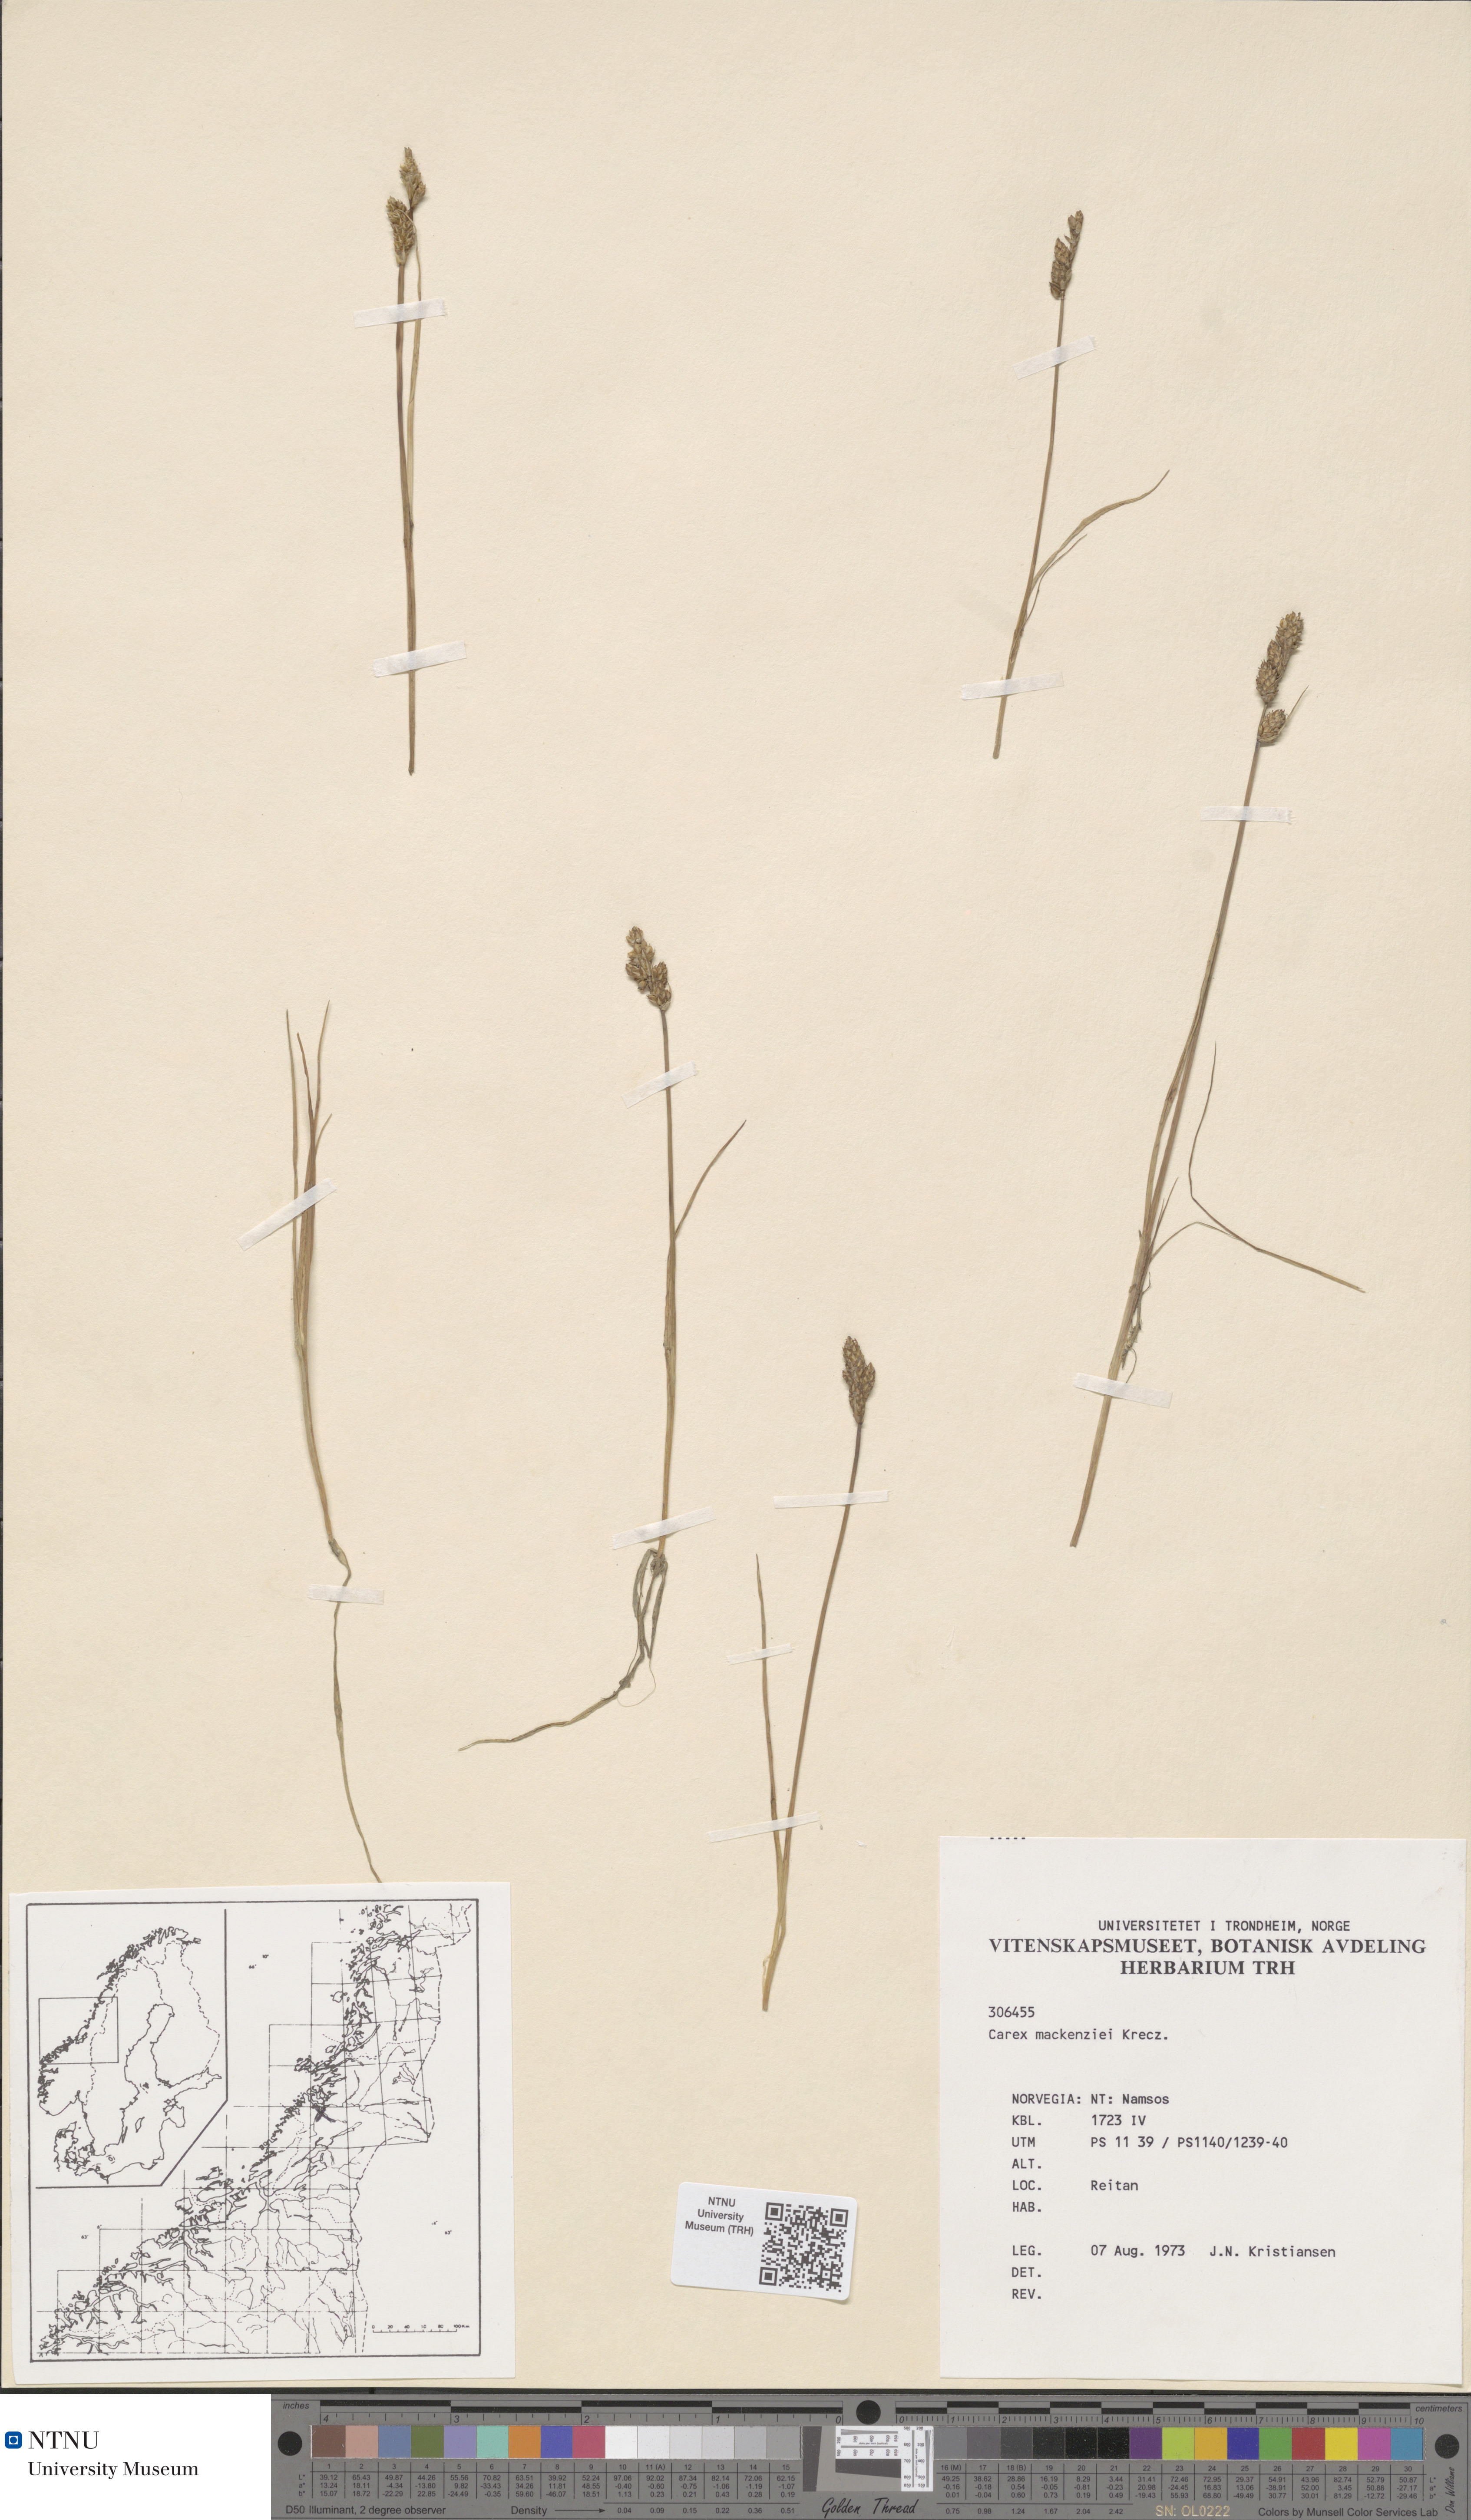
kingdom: Plantae
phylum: Tracheophyta
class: Liliopsida
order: Poales
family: Cyperaceae
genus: Carex
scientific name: Carex mackenziei
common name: Mackenzie's sedge
